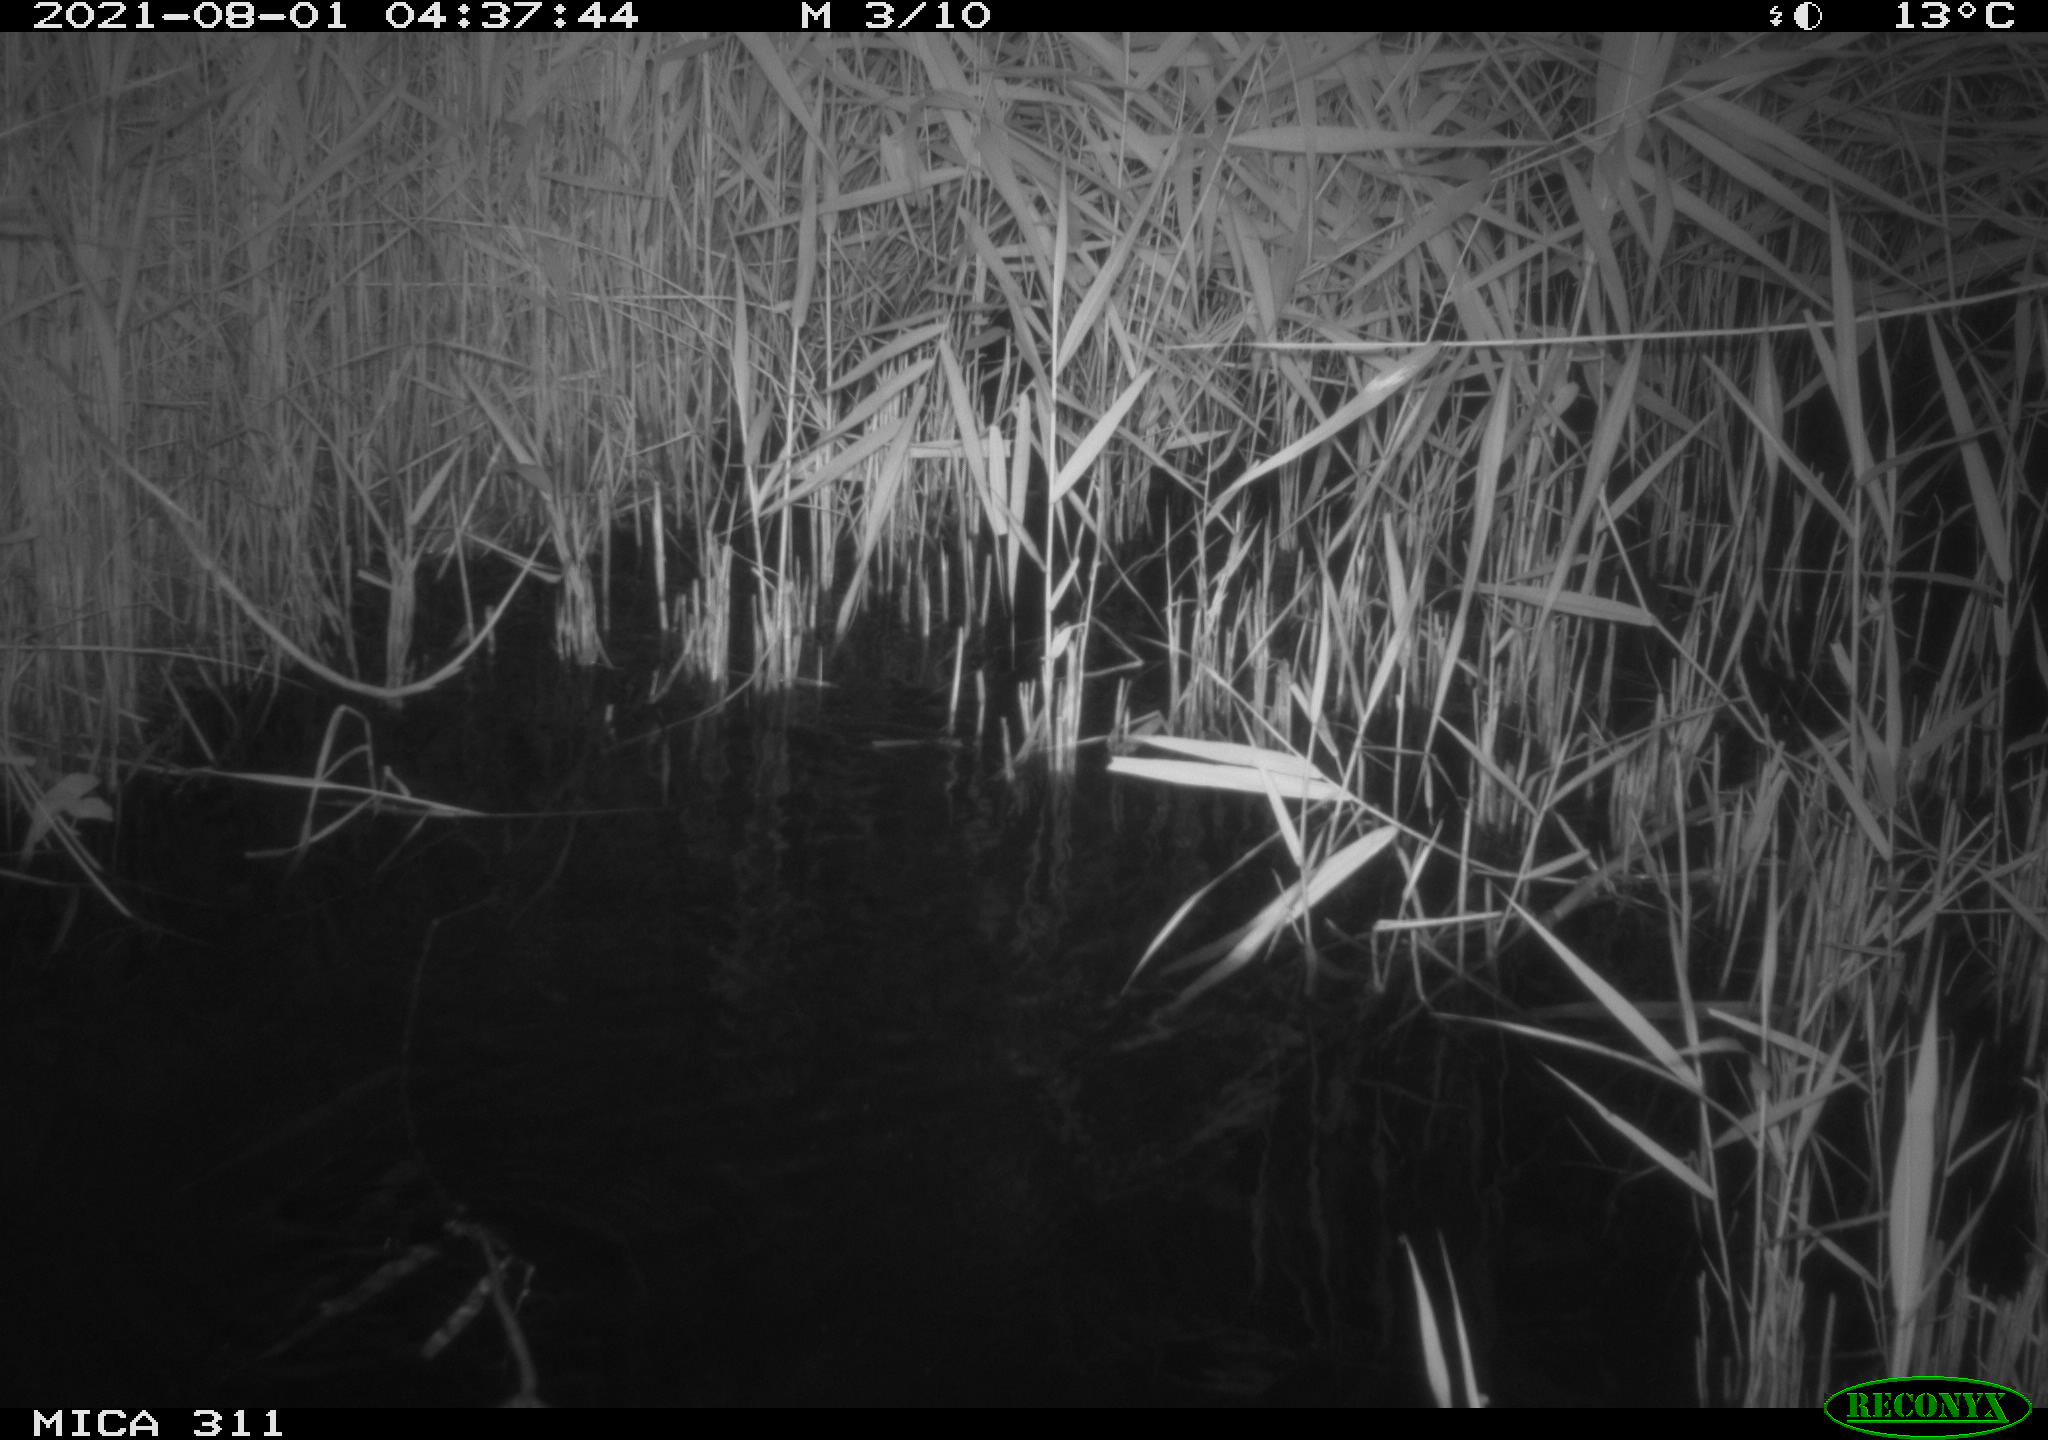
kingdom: Animalia
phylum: Chordata
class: Mammalia
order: Rodentia
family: Muridae
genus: Rattus
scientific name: Rattus norvegicus
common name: Brown rat
